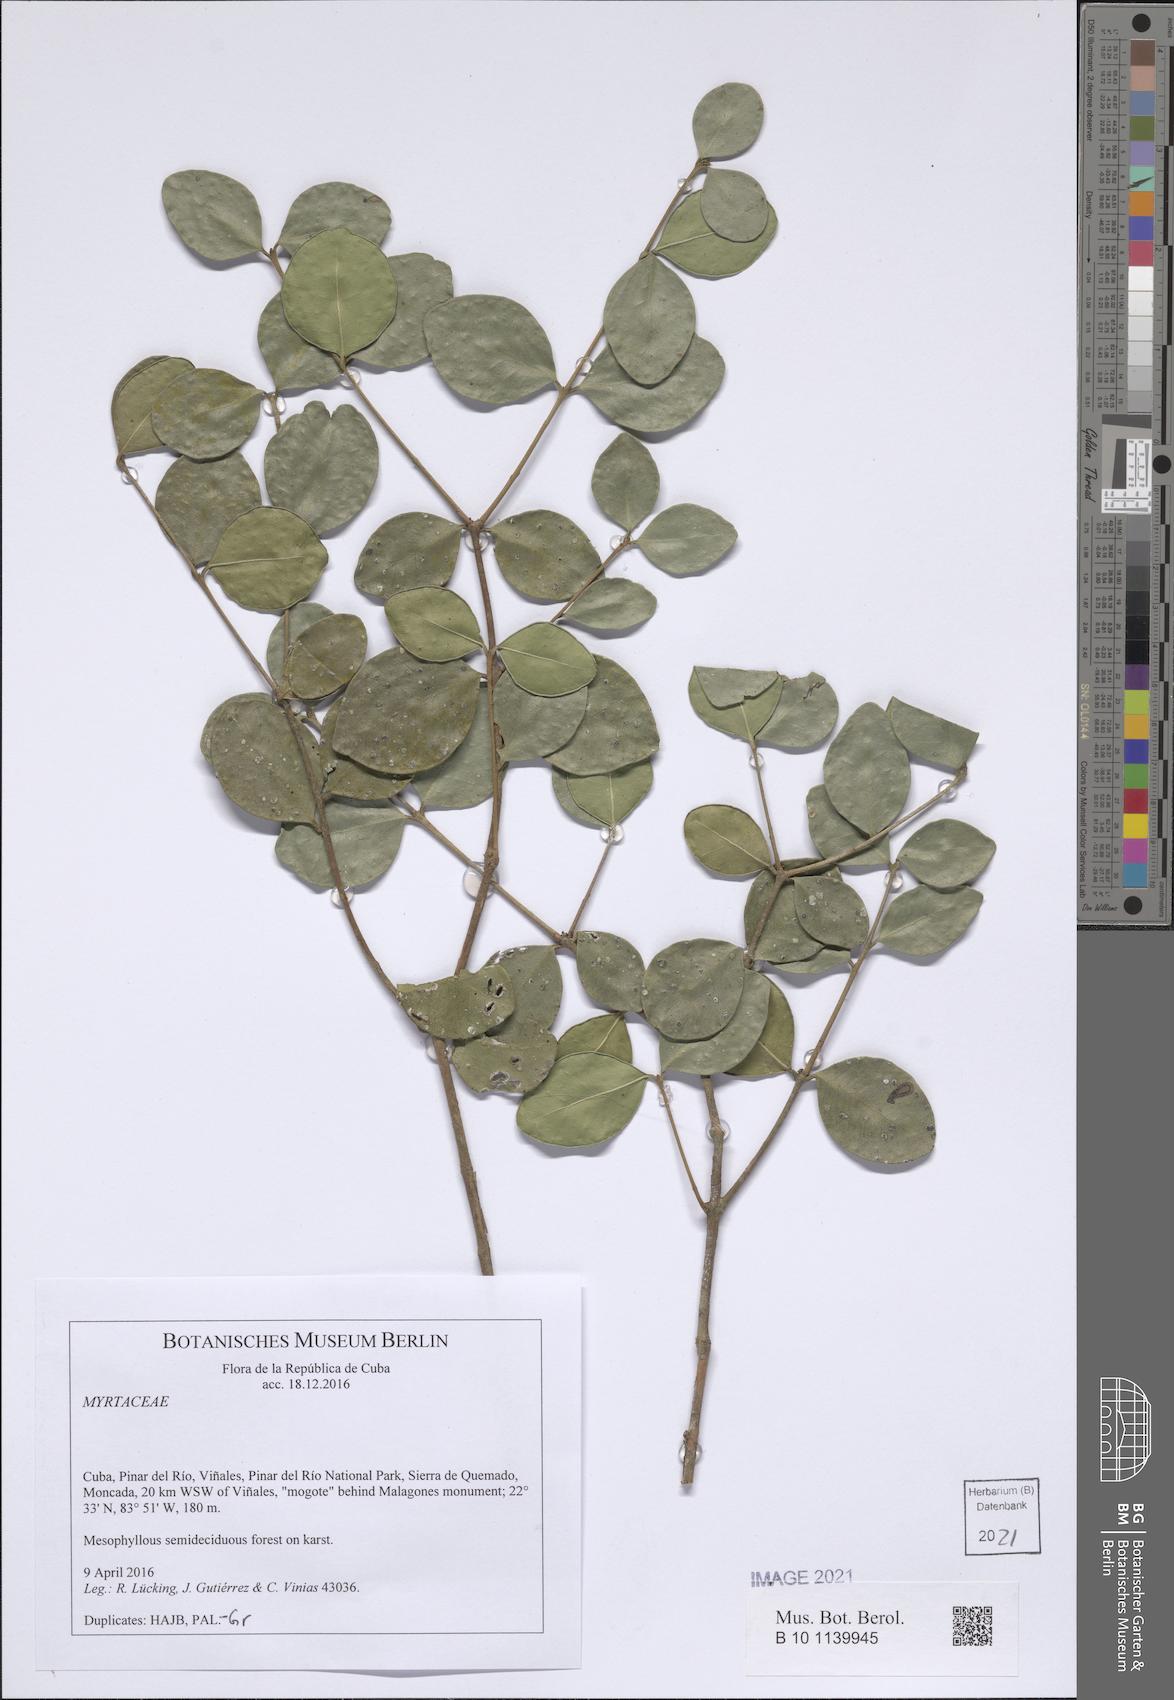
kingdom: Plantae
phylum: Tracheophyta
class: Magnoliopsida
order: Myrtales
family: Myrtaceae
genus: Psidium
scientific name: Psidium scopulorum
